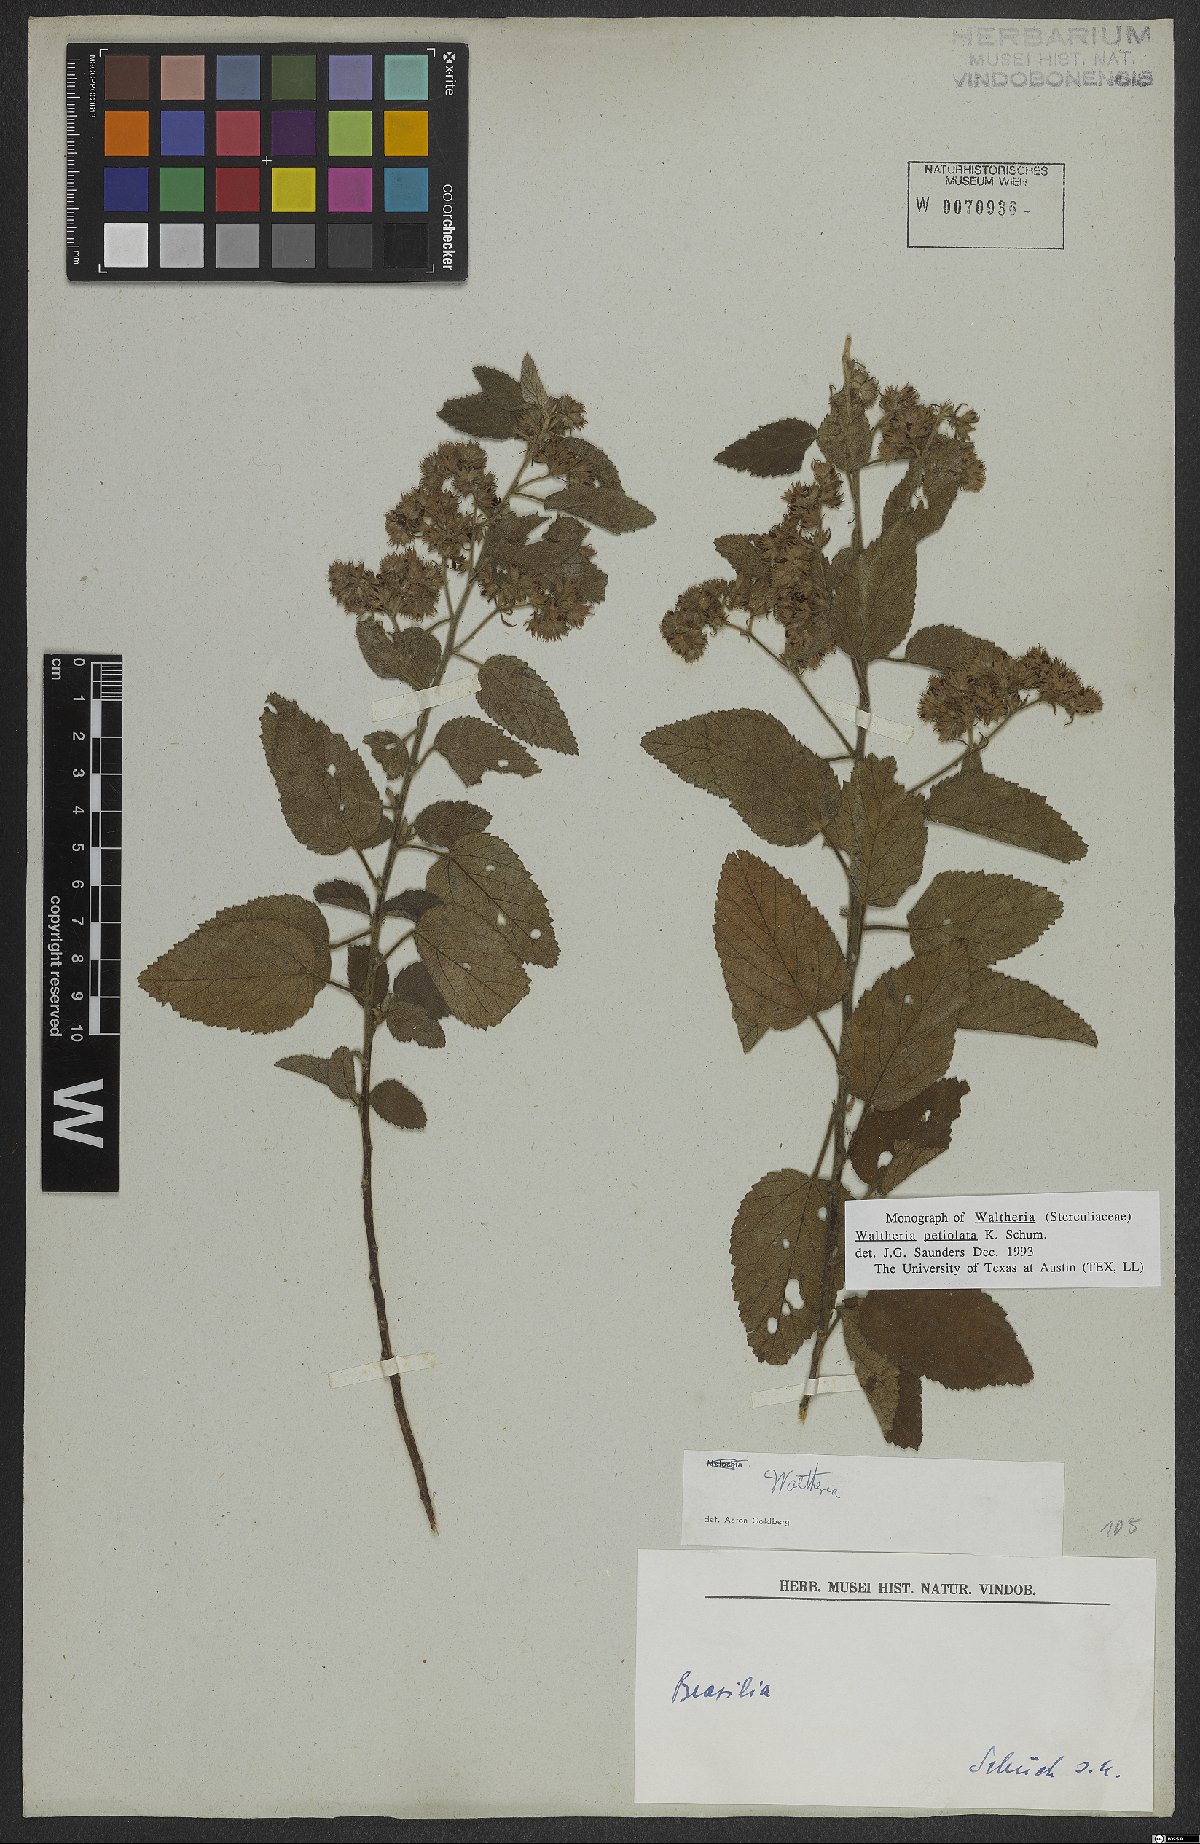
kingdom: Plantae
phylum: Tracheophyta
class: Magnoliopsida
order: Malvales
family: Malvaceae
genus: Waltheria
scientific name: Waltheria petiolata
